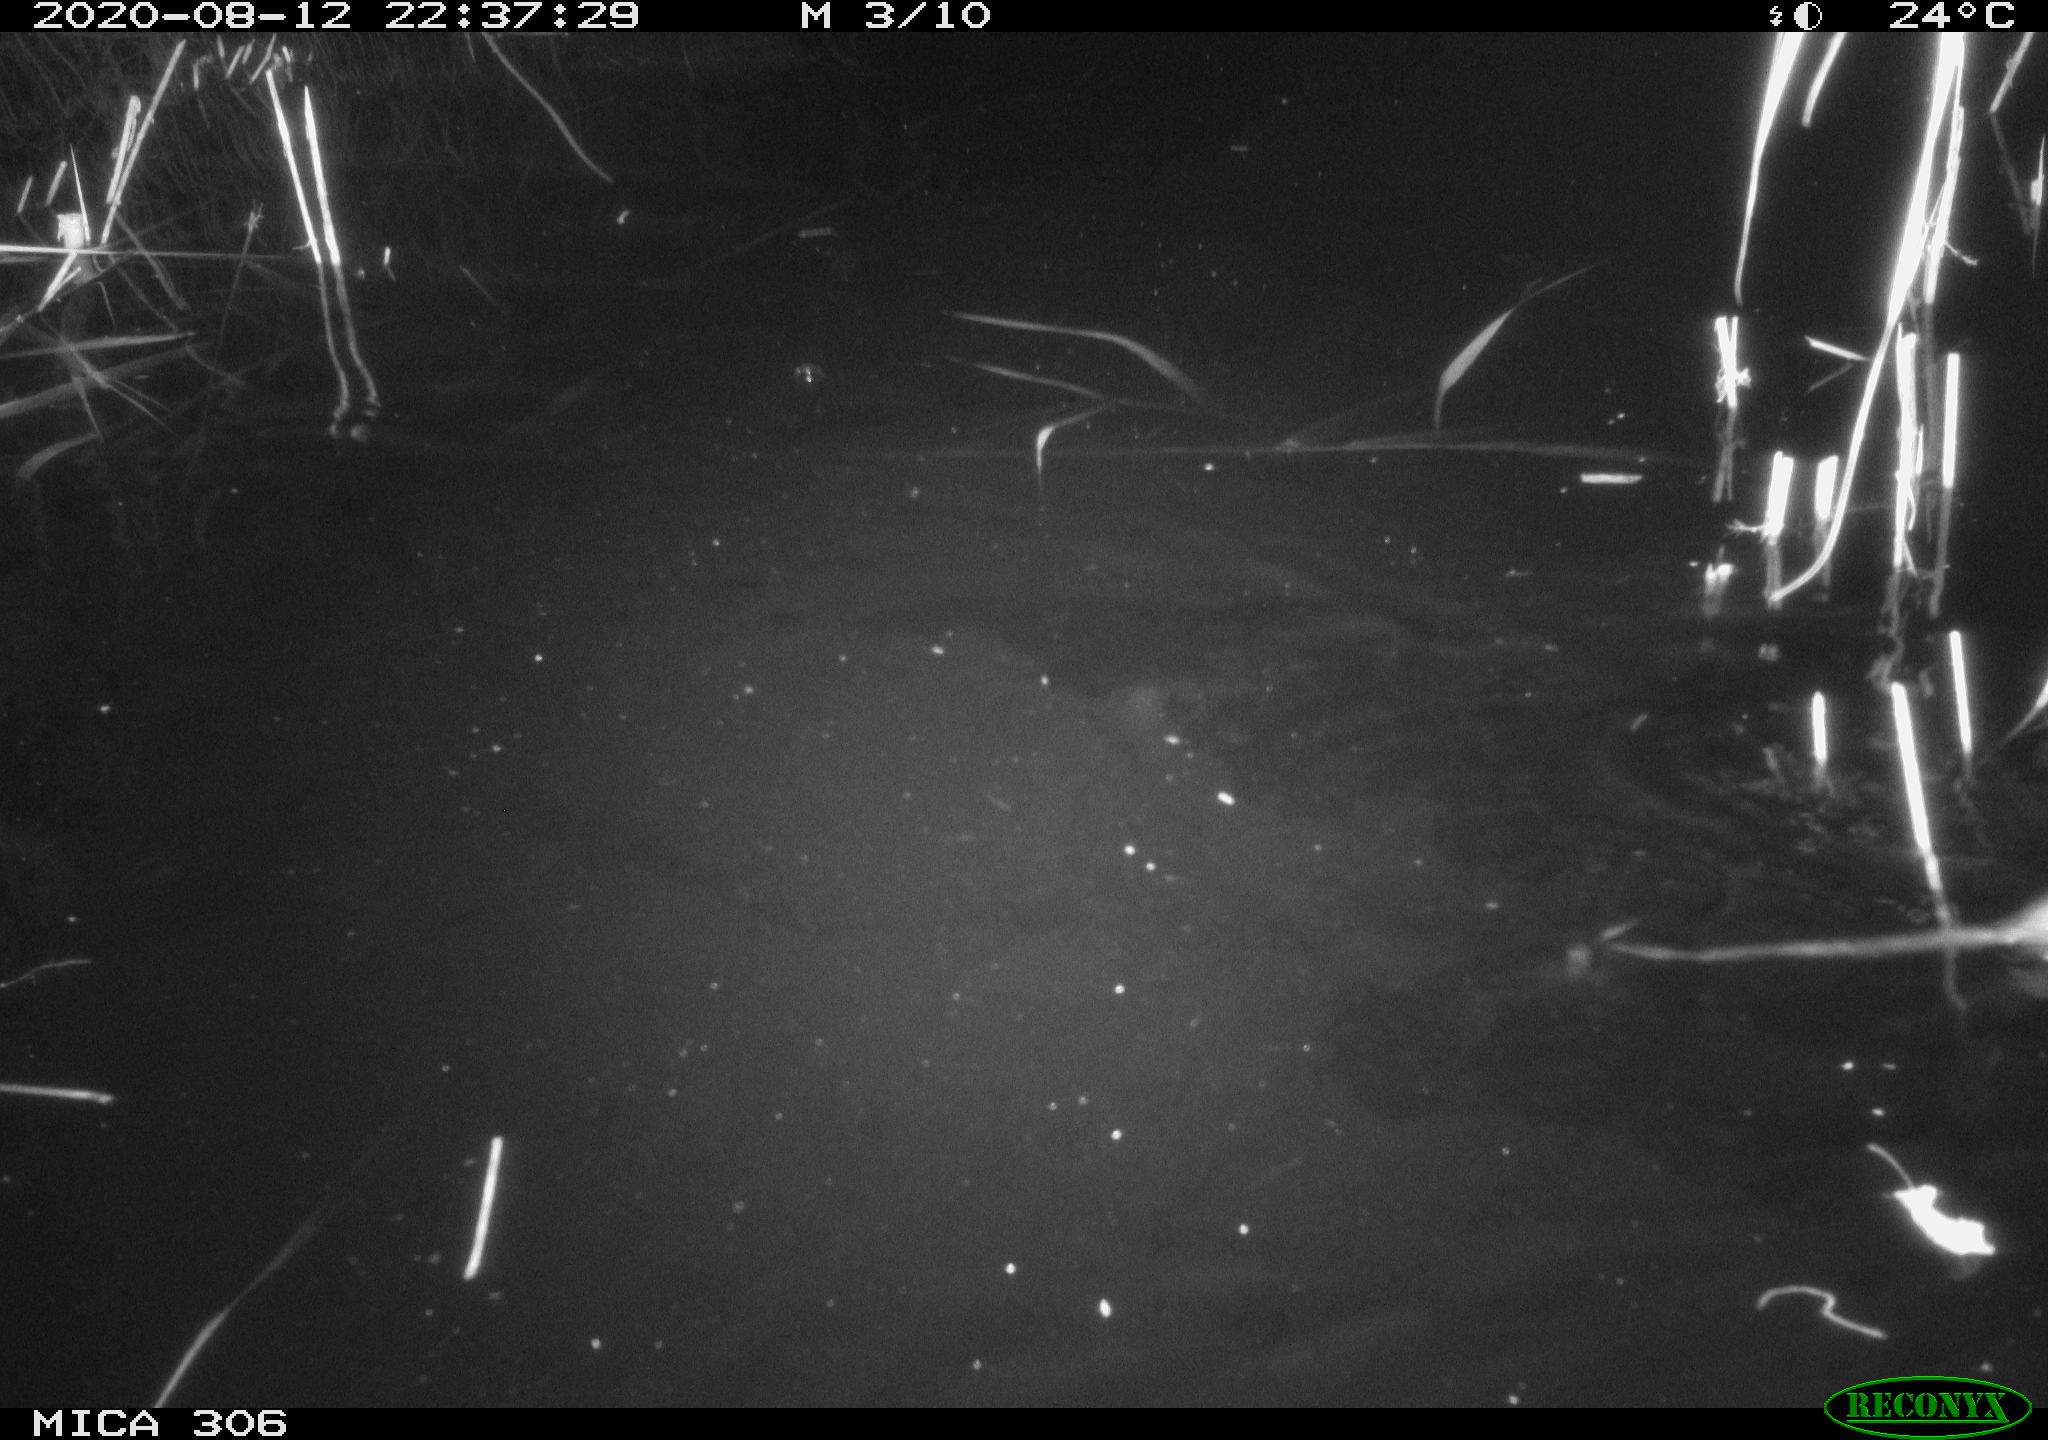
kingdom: Animalia
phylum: Chordata
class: Mammalia
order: Rodentia
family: Muridae
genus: Rattus
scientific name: Rattus norvegicus
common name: Brown rat
